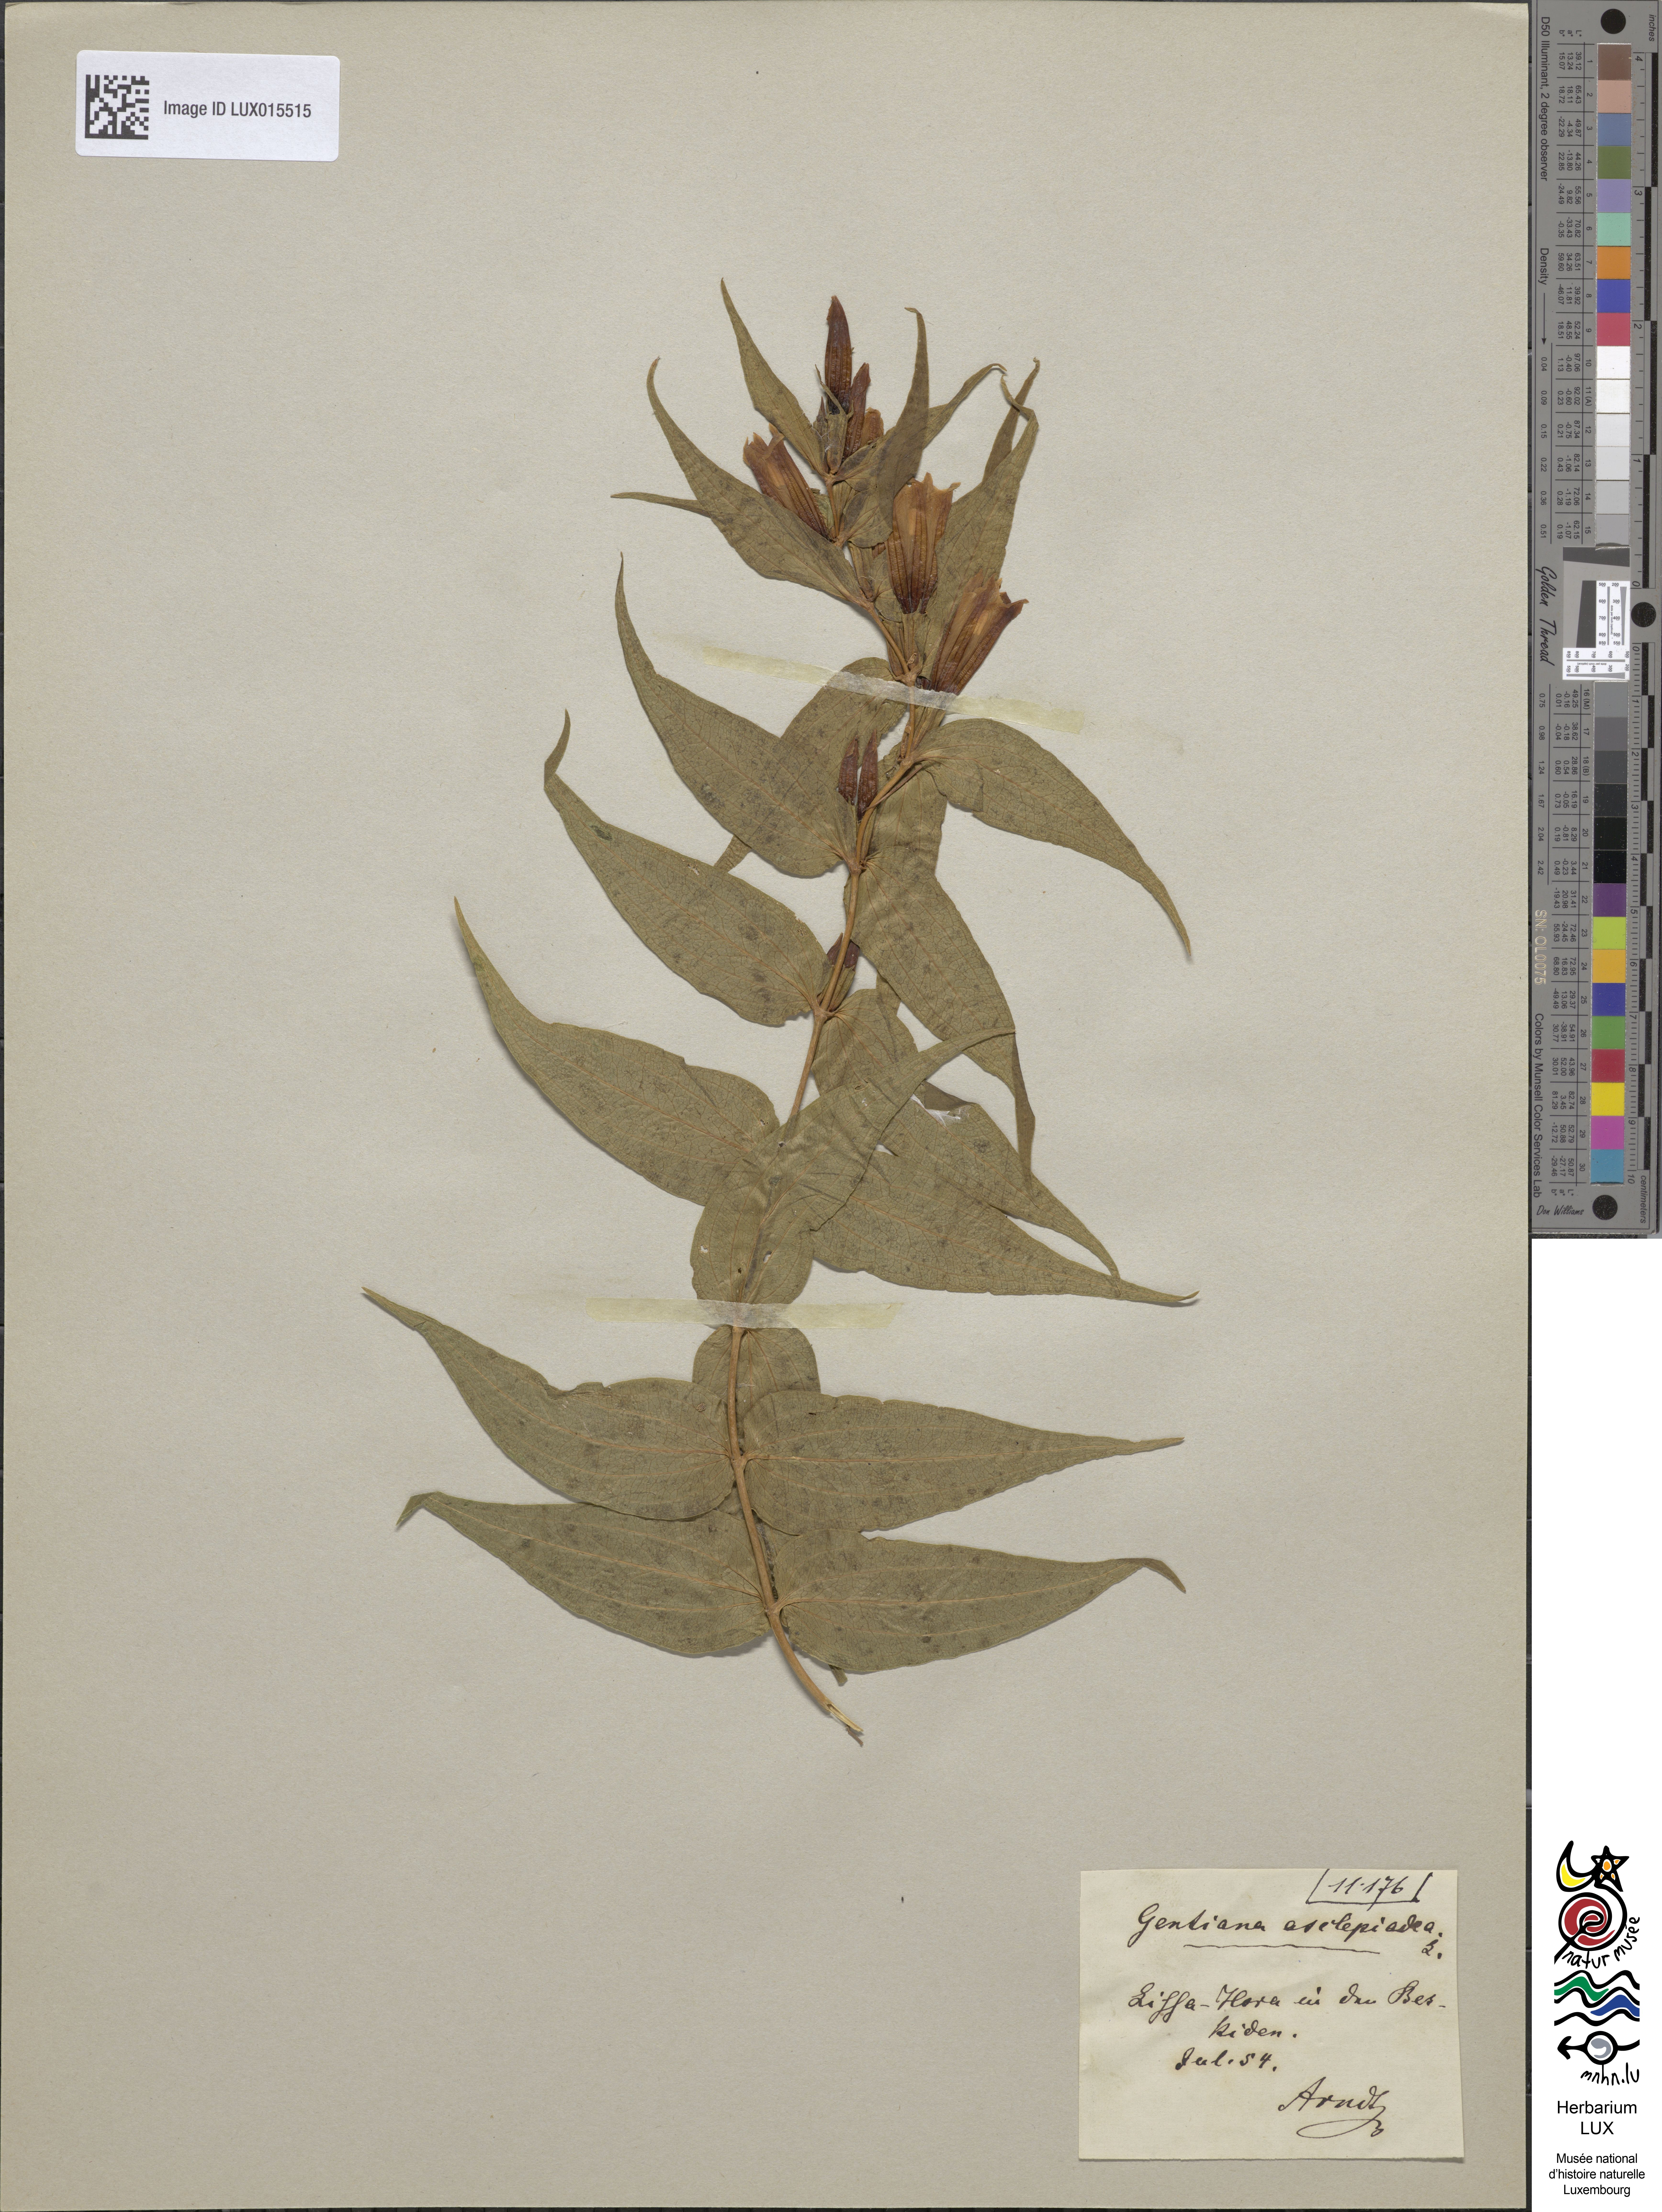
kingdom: Plantae
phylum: Tracheophyta
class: Magnoliopsida
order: Gentianales
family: Gentianaceae
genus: Gentiana
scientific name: Gentiana asclepiadea
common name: Willow gentian
